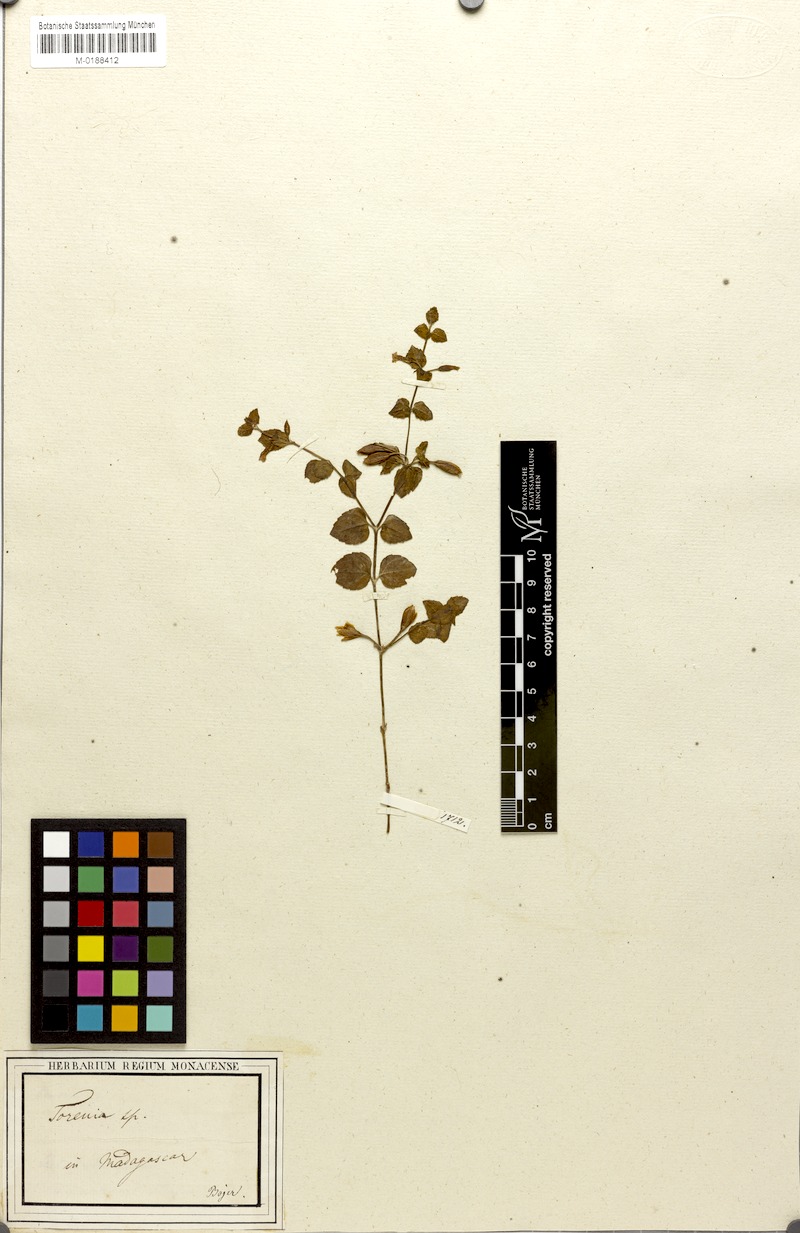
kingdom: Plantae
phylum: Tracheophyta
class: Magnoliopsida
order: Lamiales
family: Linderniaceae
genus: Torenia
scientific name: Torenia thouarsii
